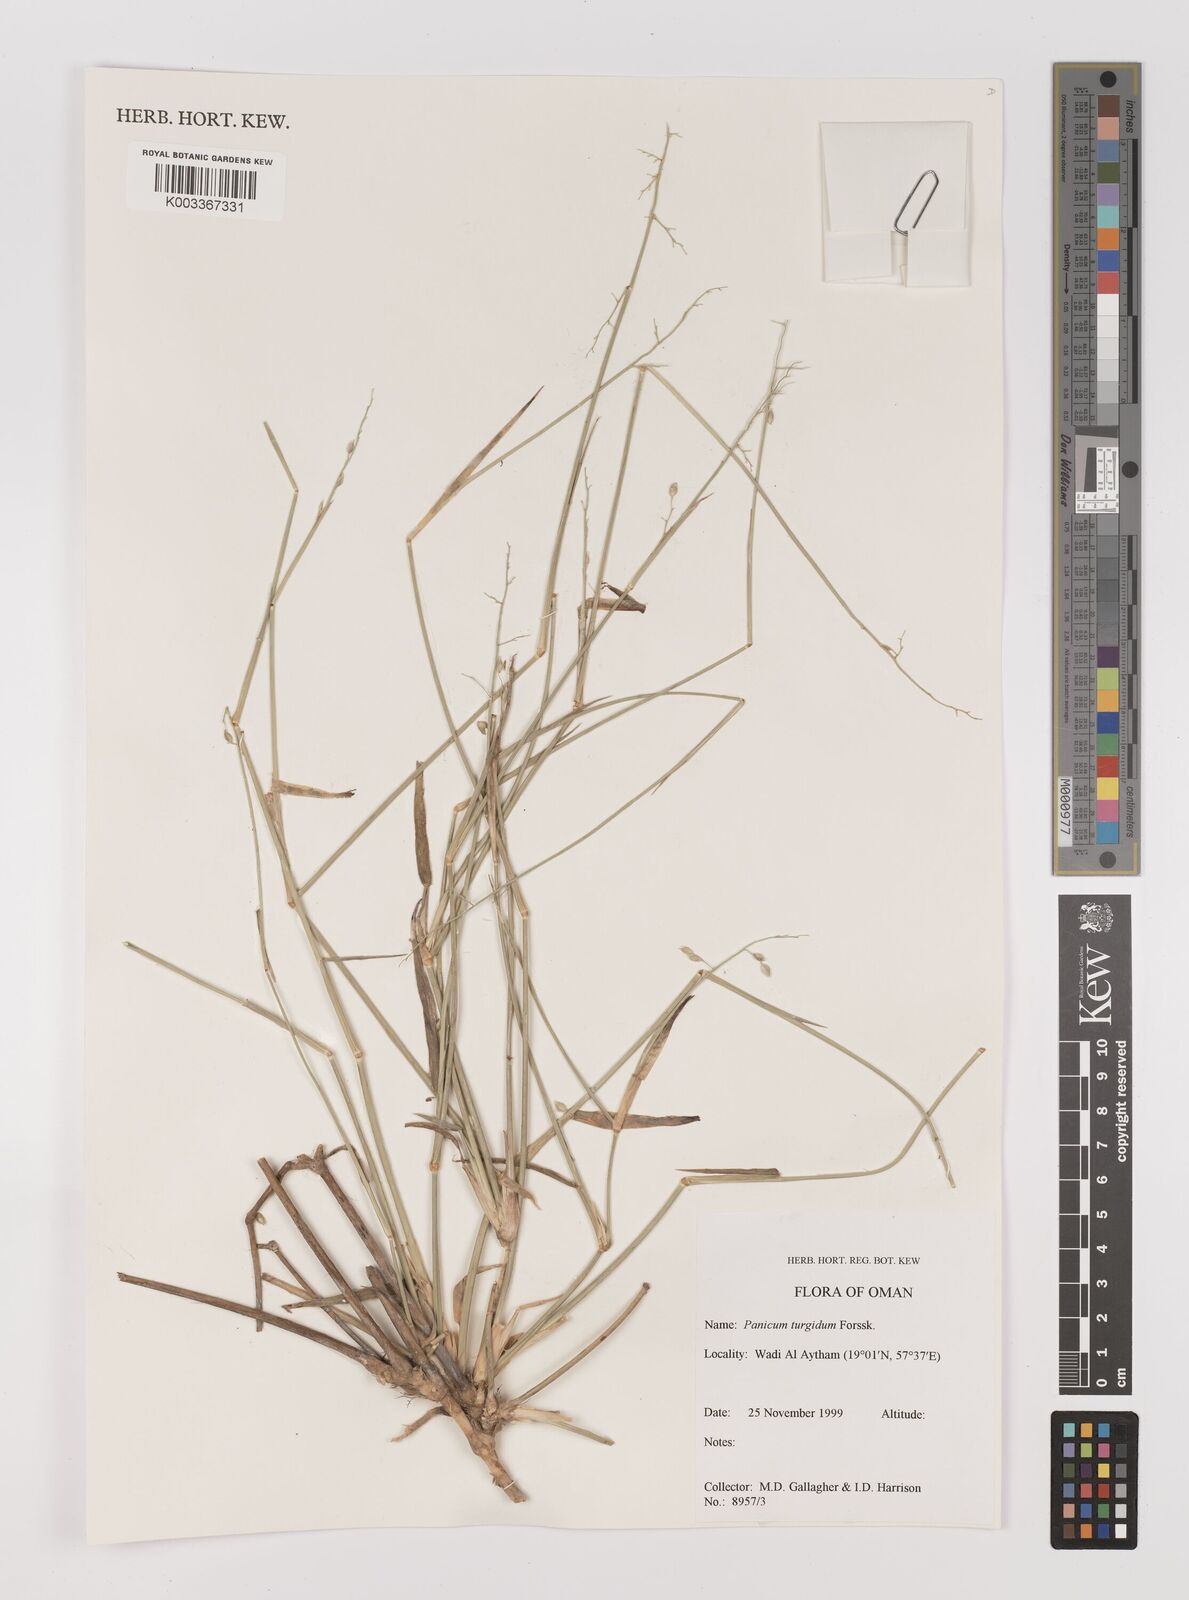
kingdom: Plantae
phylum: Tracheophyta
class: Liliopsida
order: Poales
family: Poaceae
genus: Panicum
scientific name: Panicum turgidum
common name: Desert grass
